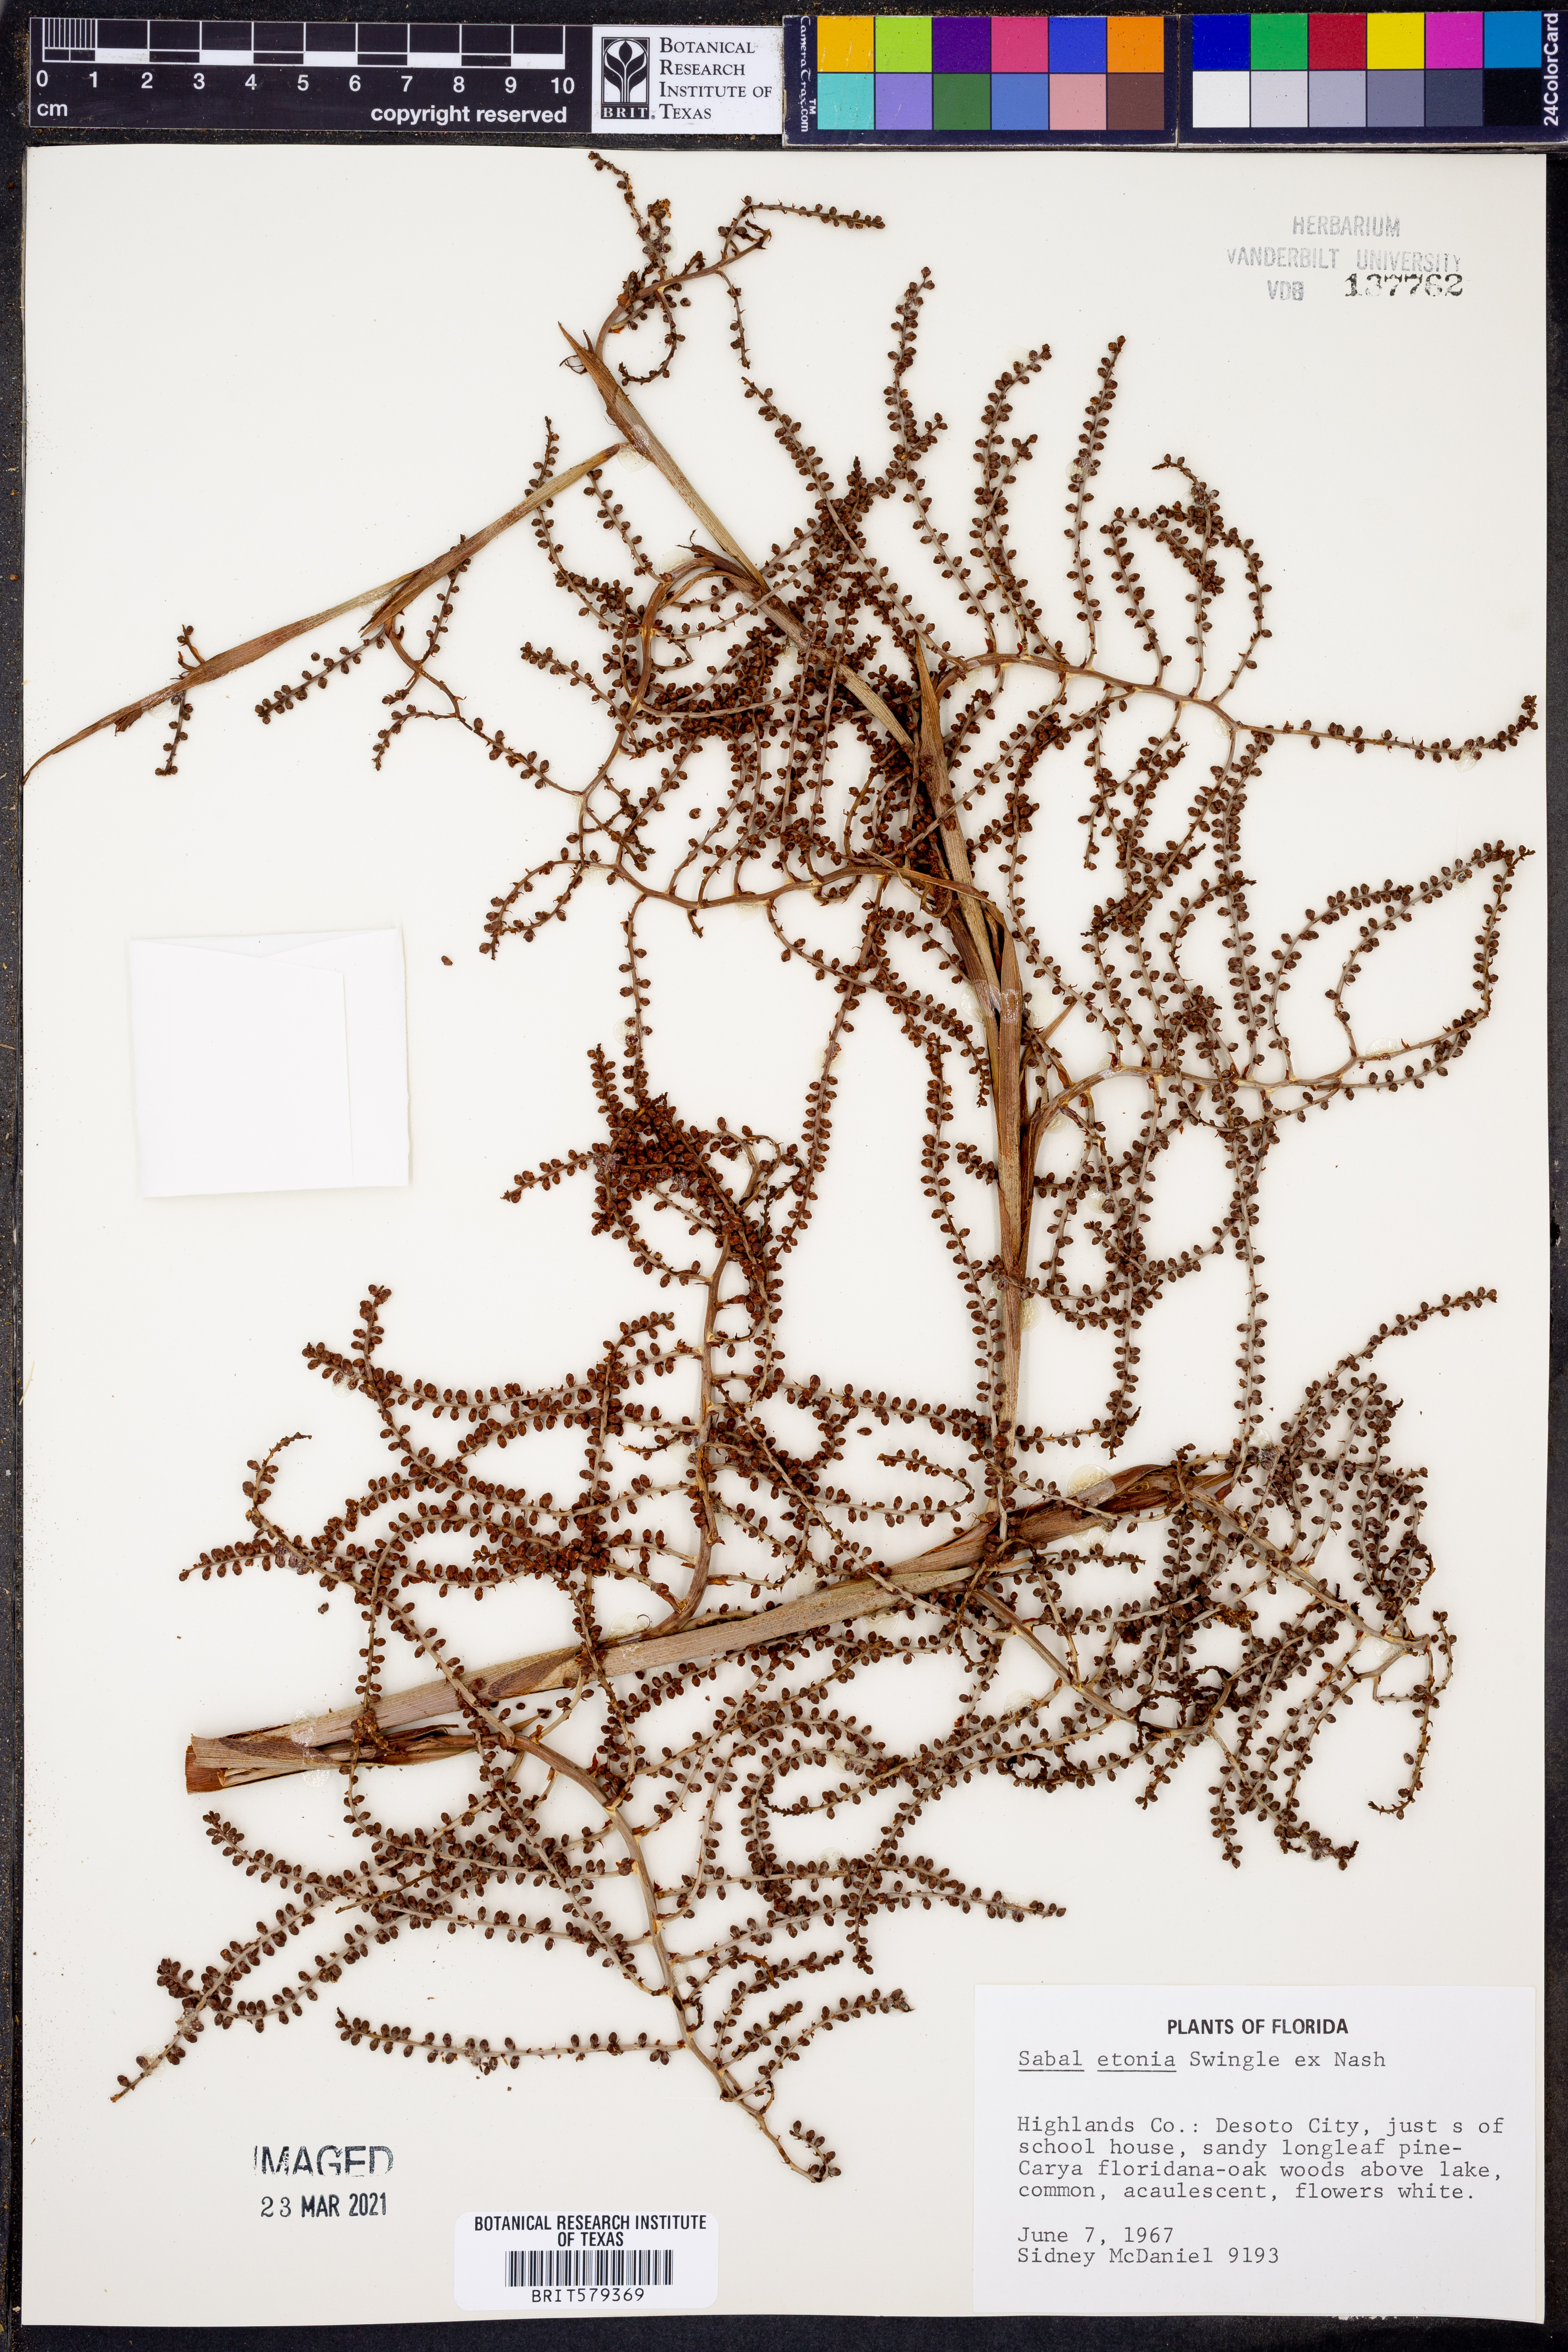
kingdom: Plantae
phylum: Tracheophyta
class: Liliopsida
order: Arecales
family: Arecaceae
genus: Sabal
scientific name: Sabal etonia
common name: Dwarf palmetto
